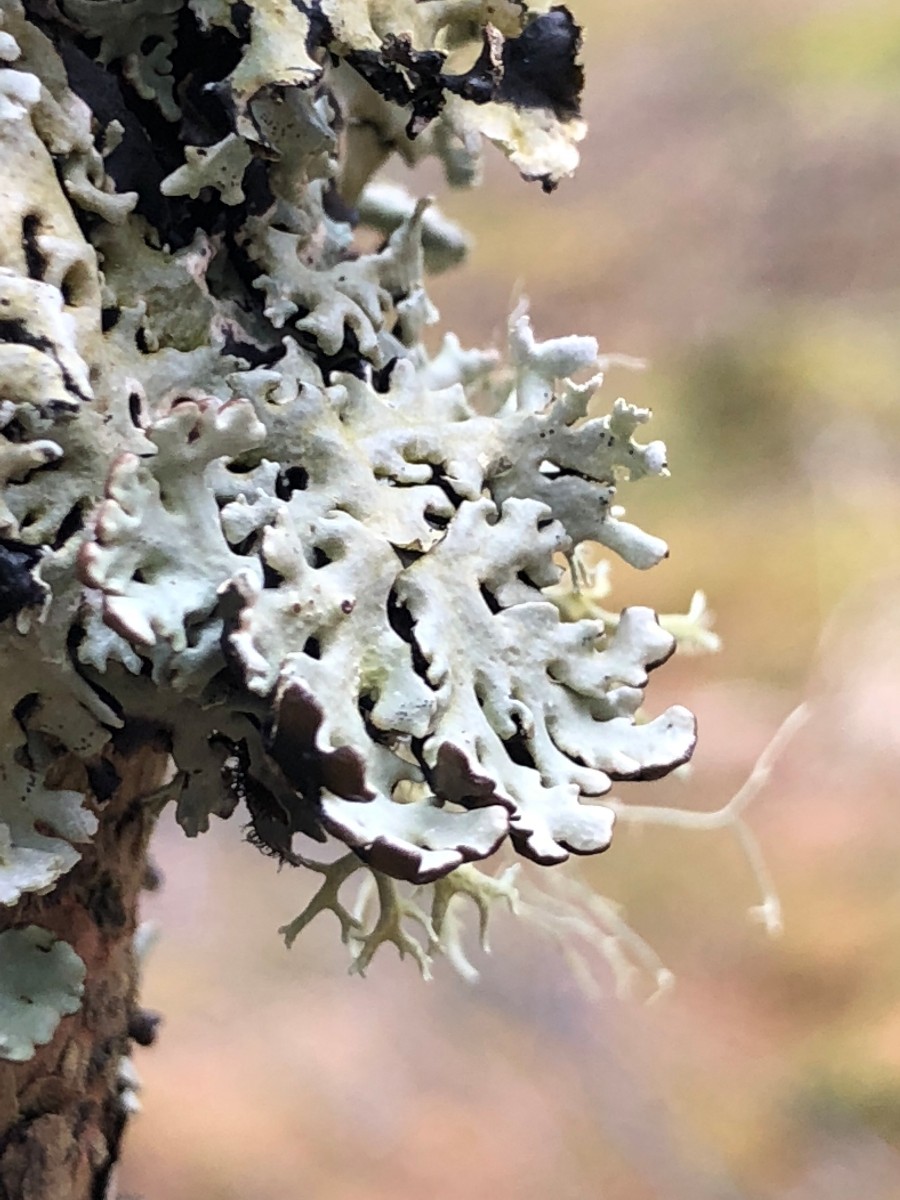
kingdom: Fungi
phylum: Ascomycota
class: Lecanoromycetes
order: Lecanorales
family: Parmeliaceae
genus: Hypogymnia
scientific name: Hypogymnia physodes
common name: almindelig kvistlav
